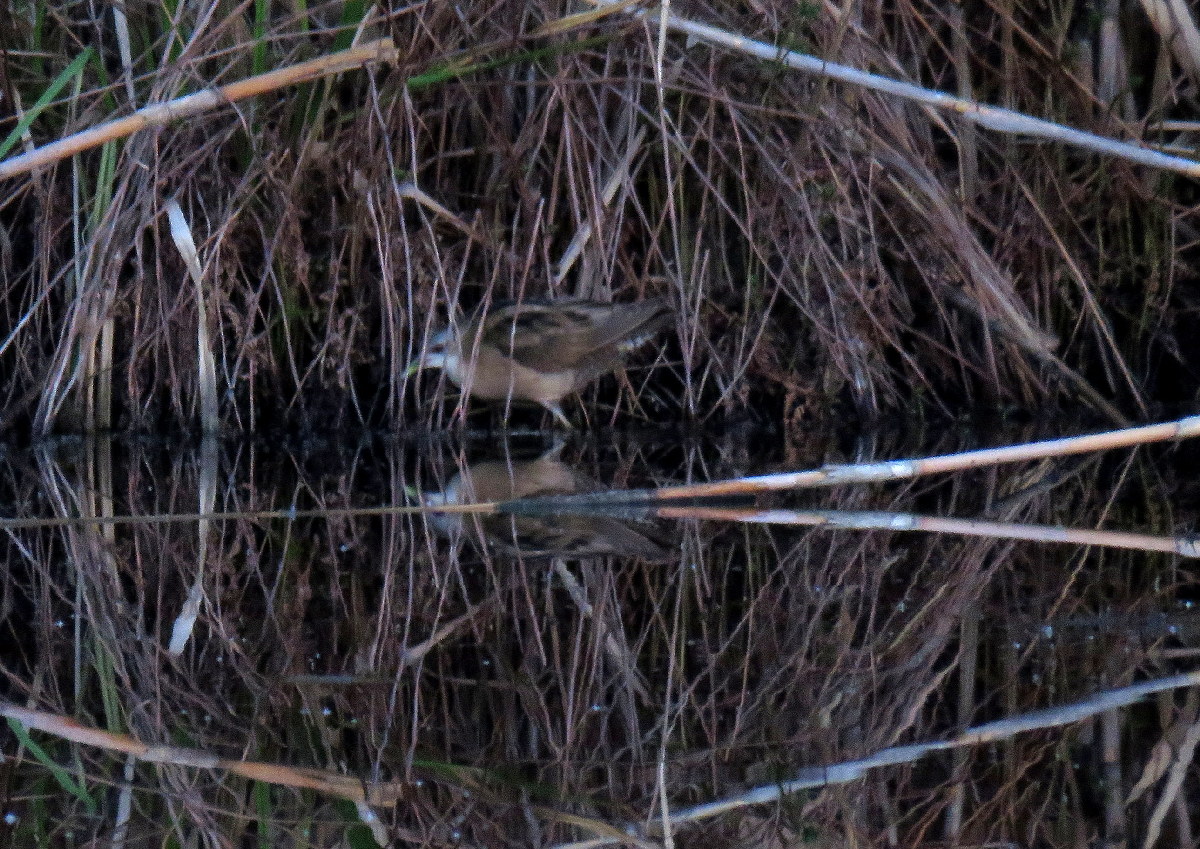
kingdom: Animalia
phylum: Chordata
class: Aves
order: Gruiformes
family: Rallidae
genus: Porzana
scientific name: Porzana parva
